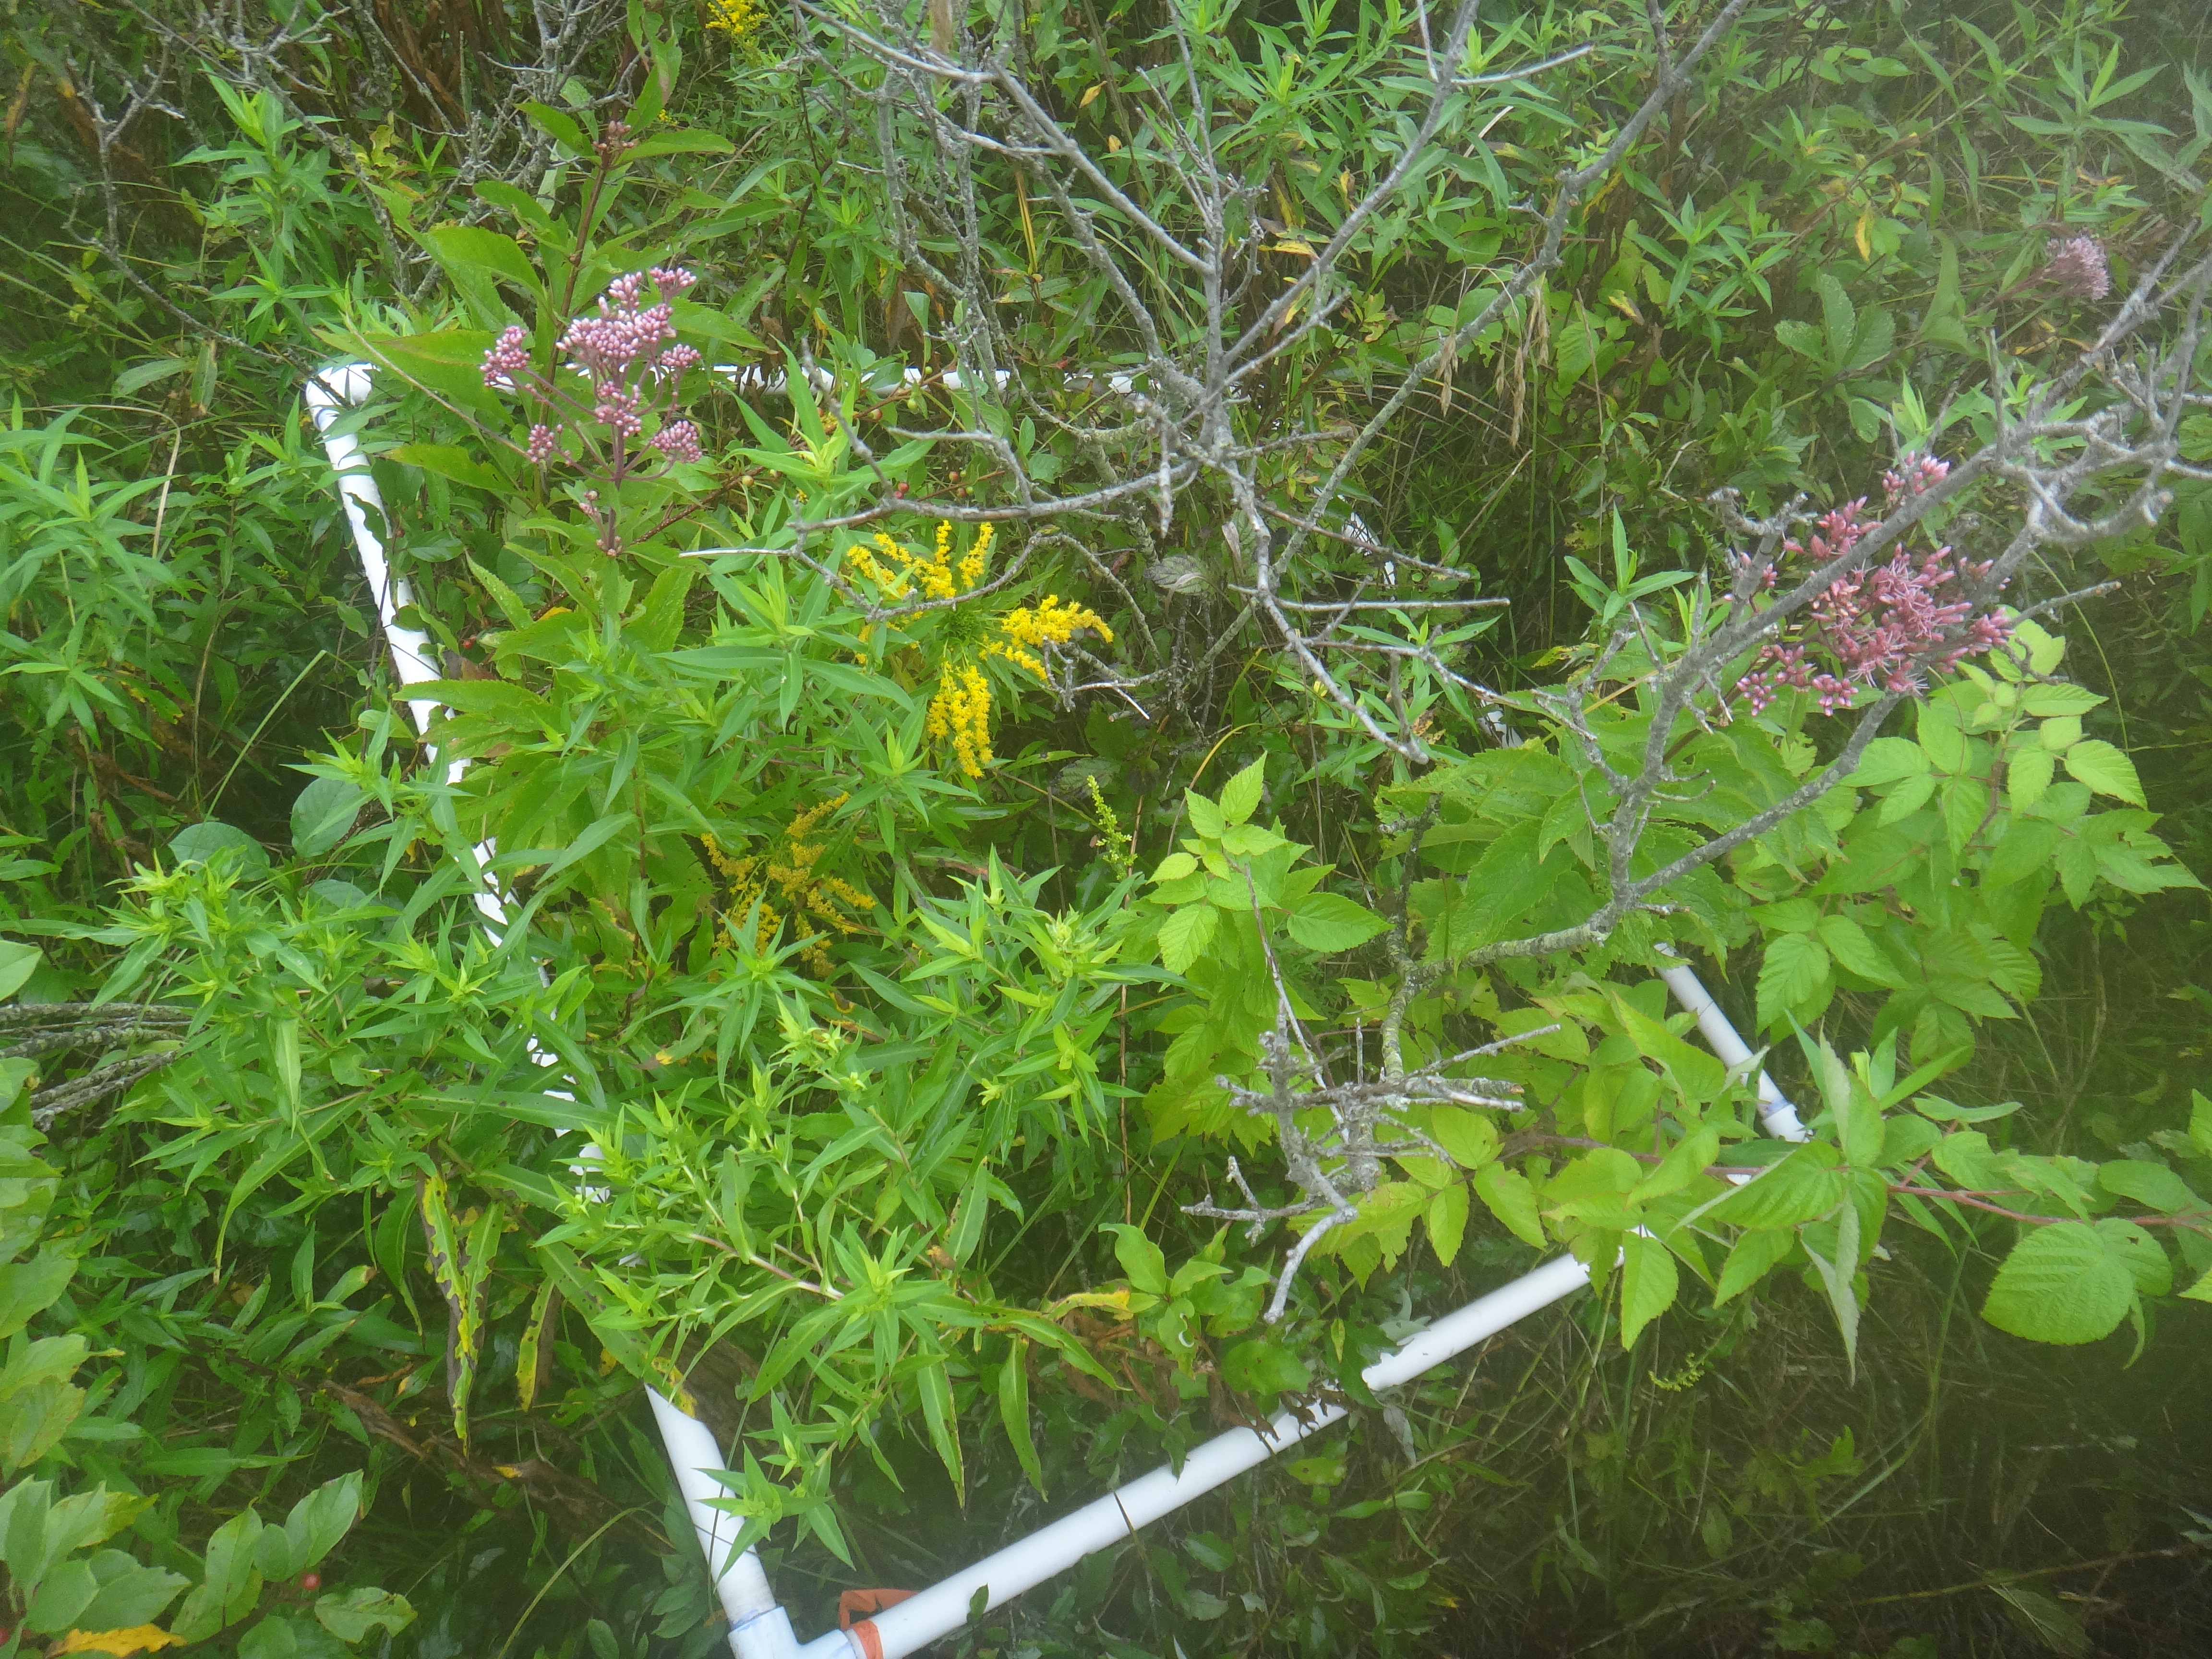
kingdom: Plantae
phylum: Tracheophyta
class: Magnoliopsida
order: Cornales
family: Cornaceae
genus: Cornus
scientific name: Cornus foemina
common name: Swamp dogwood
